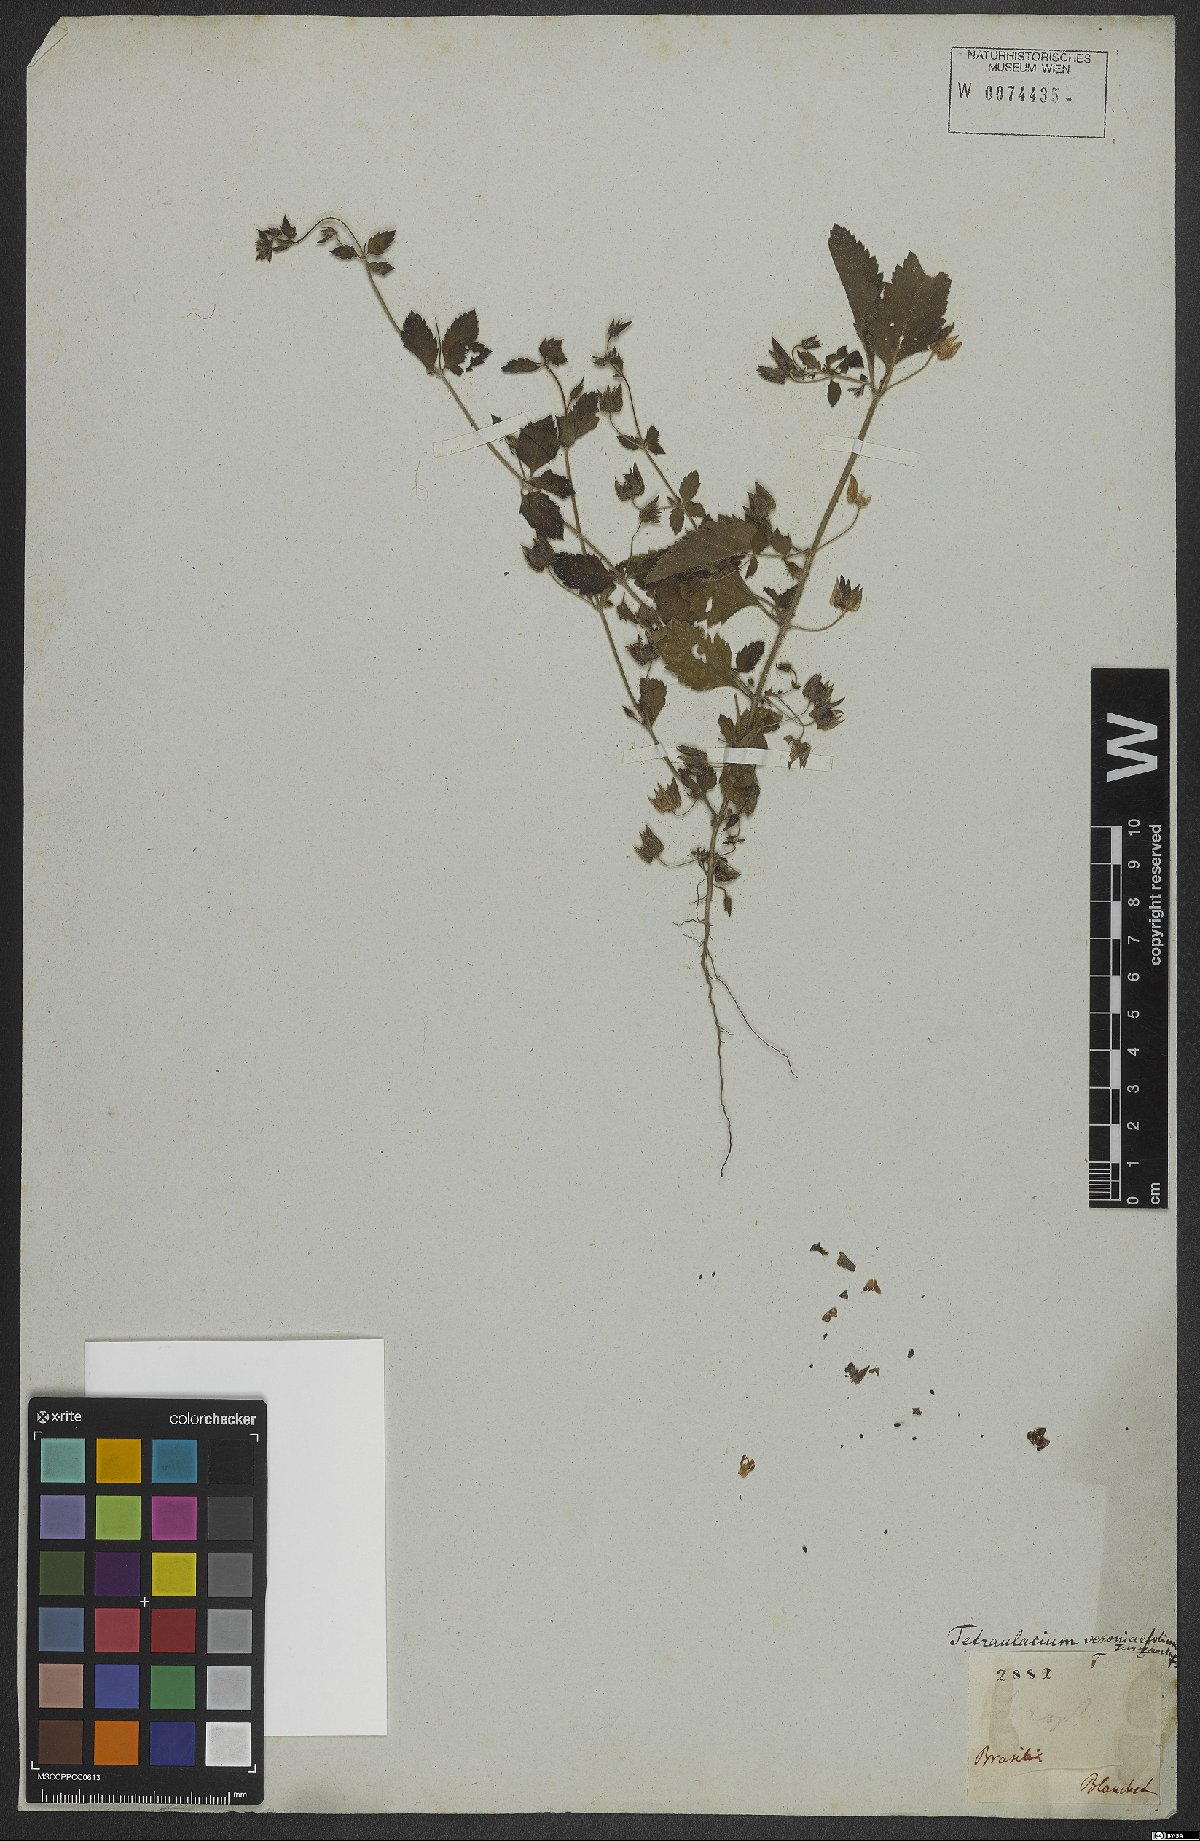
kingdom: Plantae
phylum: Tracheophyta
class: Magnoliopsida
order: Lamiales
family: Plantaginaceae
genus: Tetraulacium
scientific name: Tetraulacium veroniciforme
